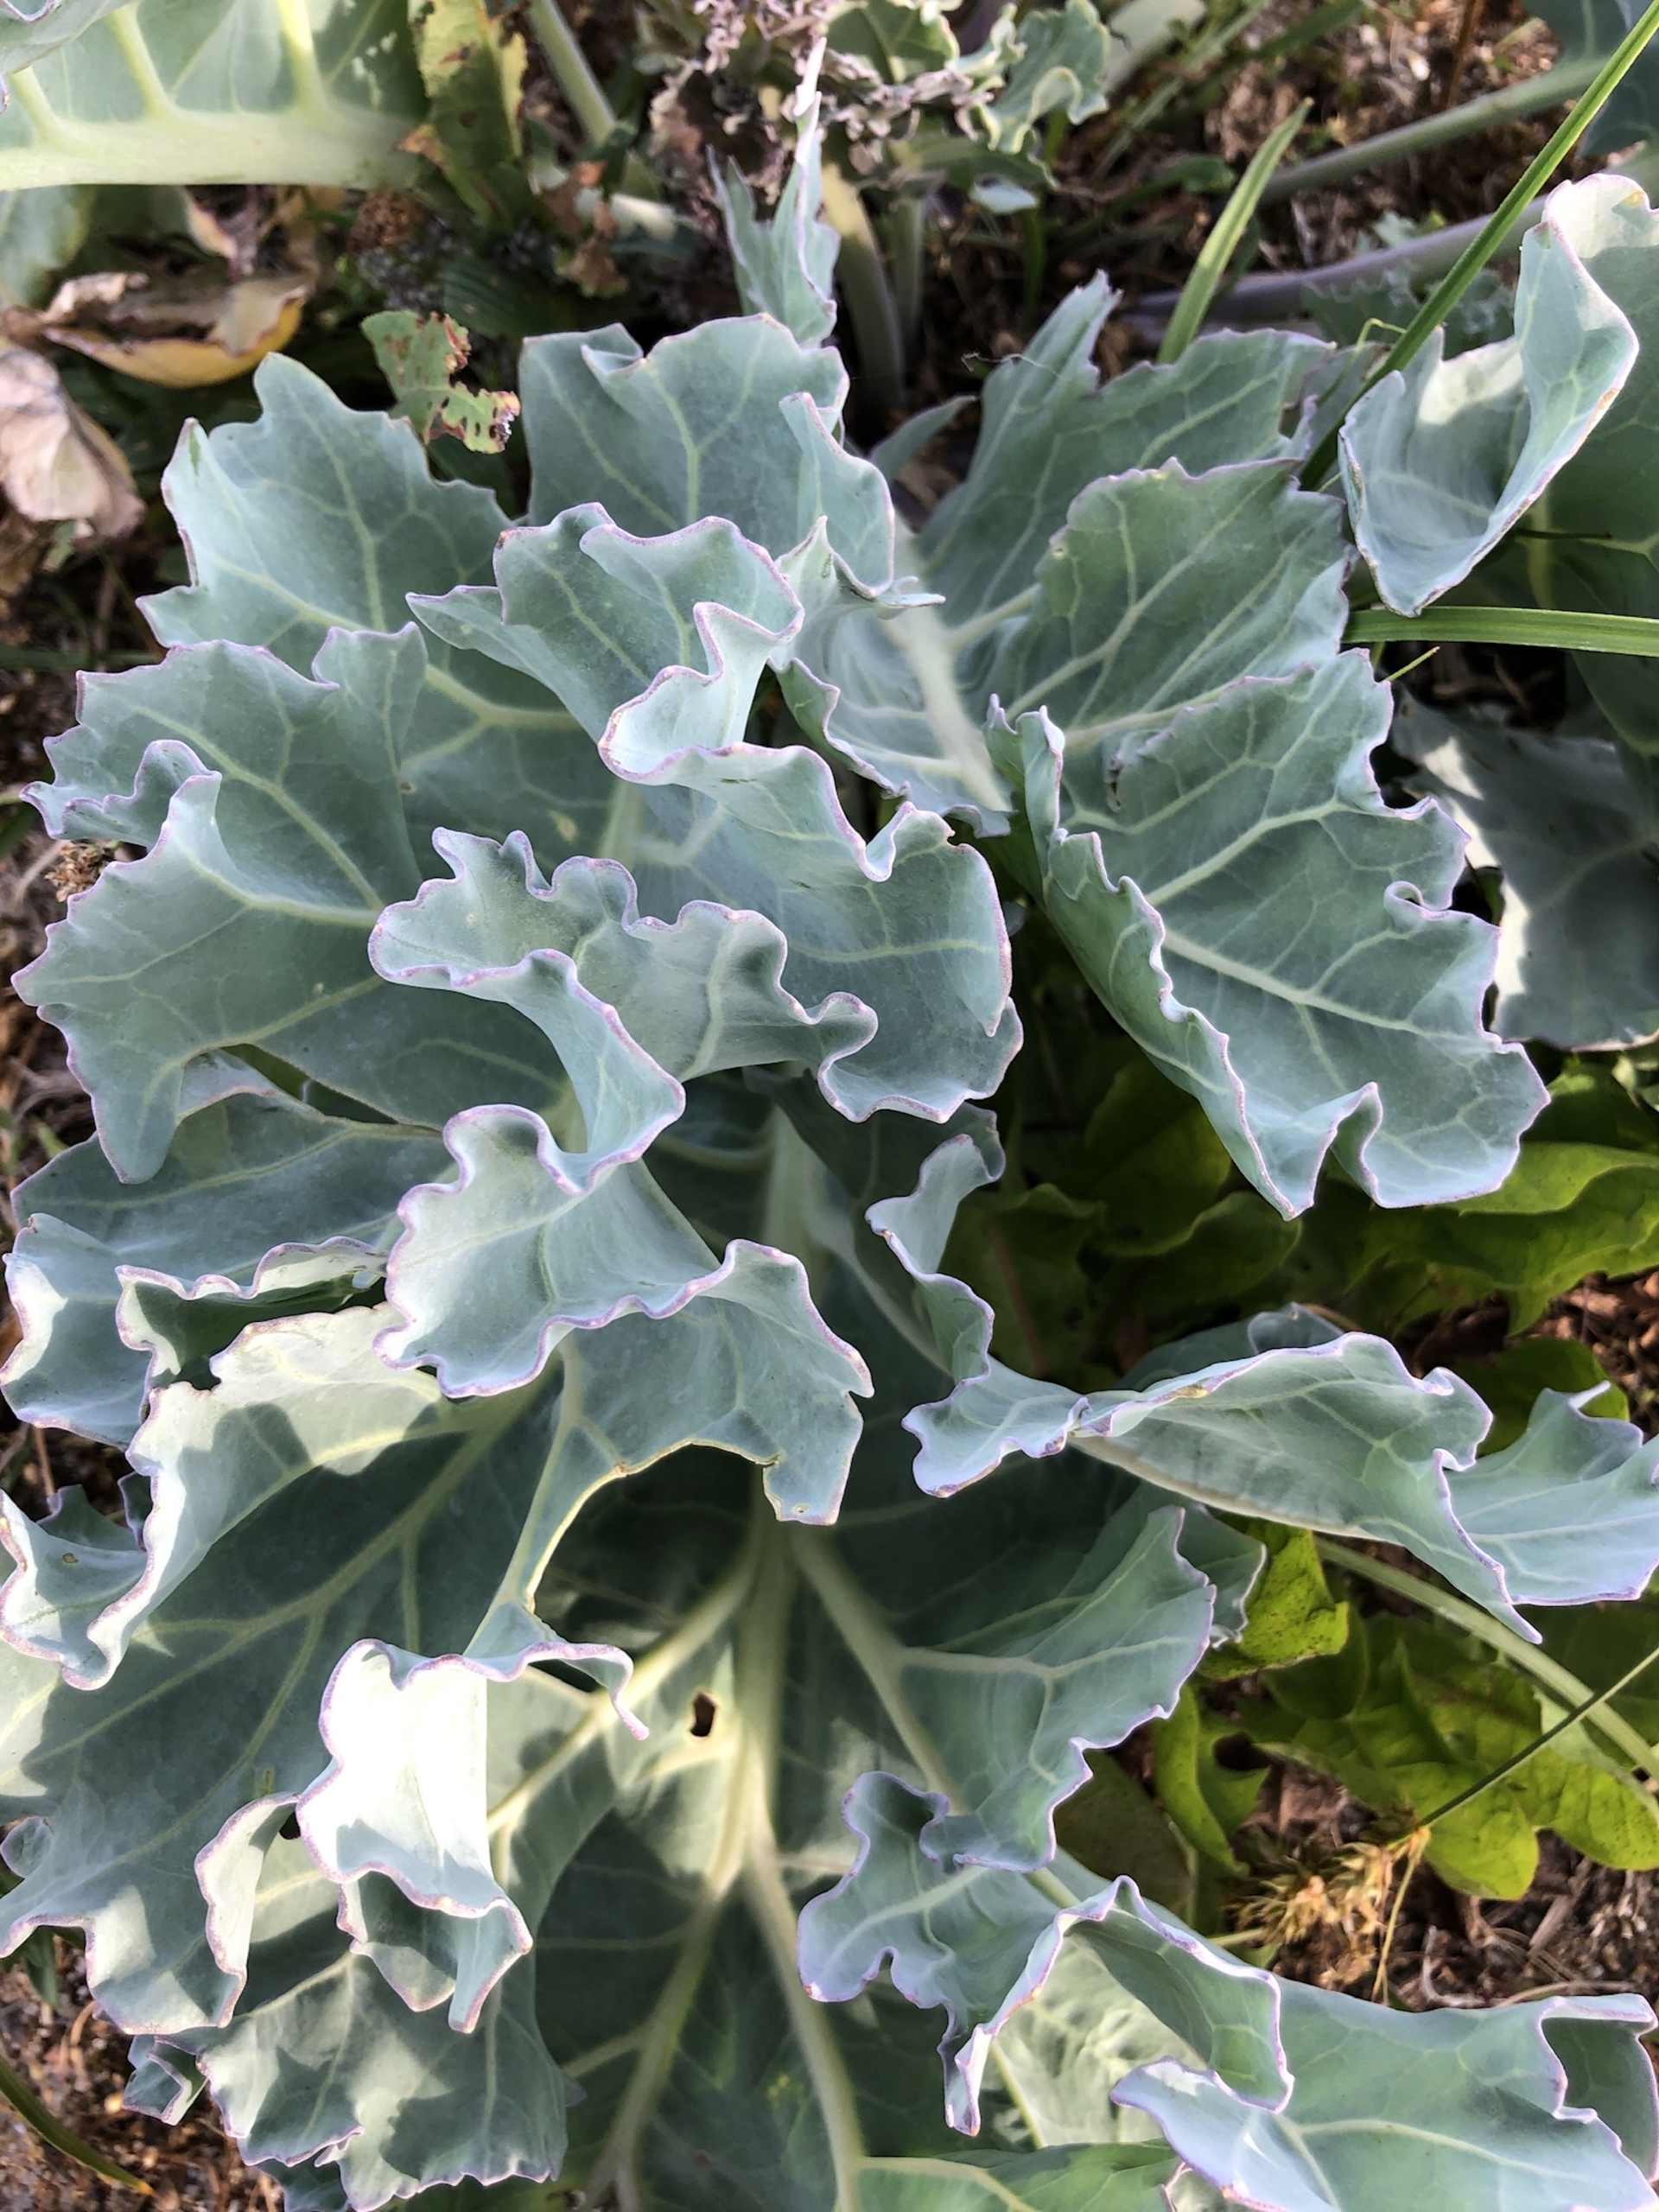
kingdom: Plantae
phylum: Tracheophyta
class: Magnoliopsida
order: Brassicales
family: Brassicaceae
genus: Crambe
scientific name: Crambe maritima
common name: Strandkål
